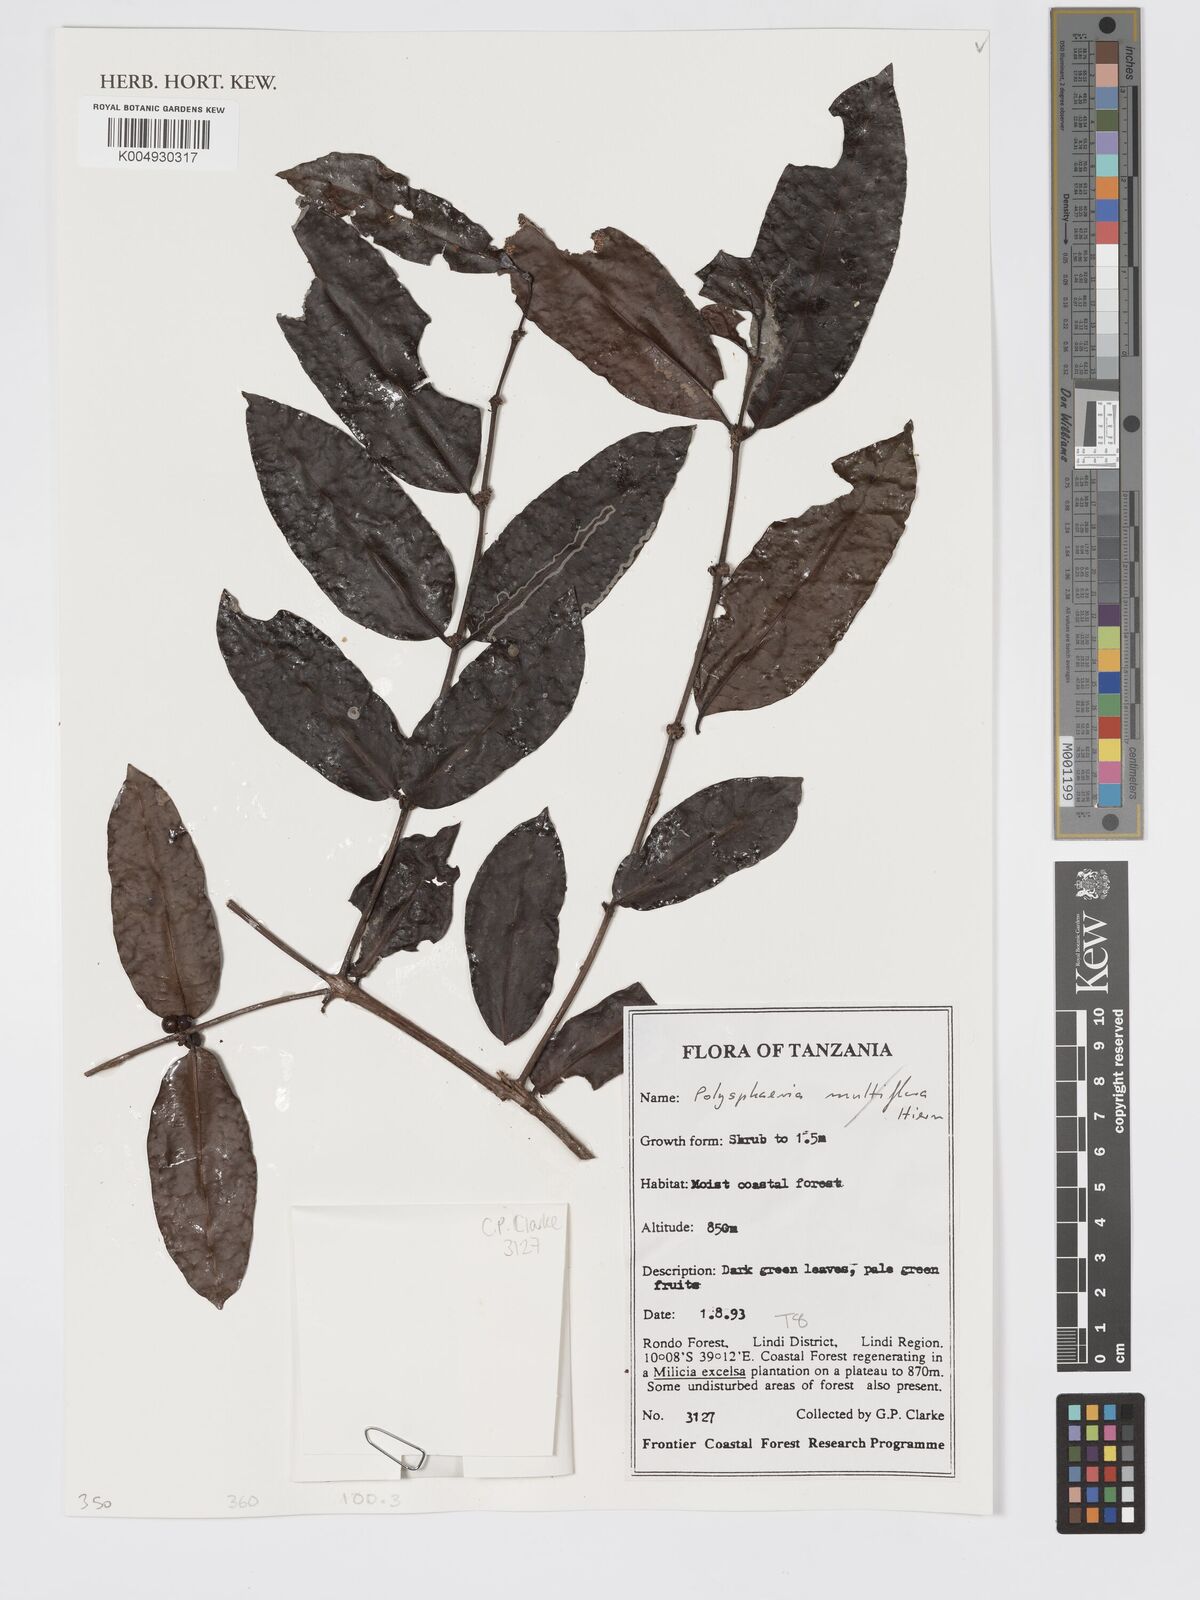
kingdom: Plantae
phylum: Tracheophyta
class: Magnoliopsida
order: Gentianales
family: Rubiaceae
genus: Polysphaeria
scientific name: Polysphaeria
